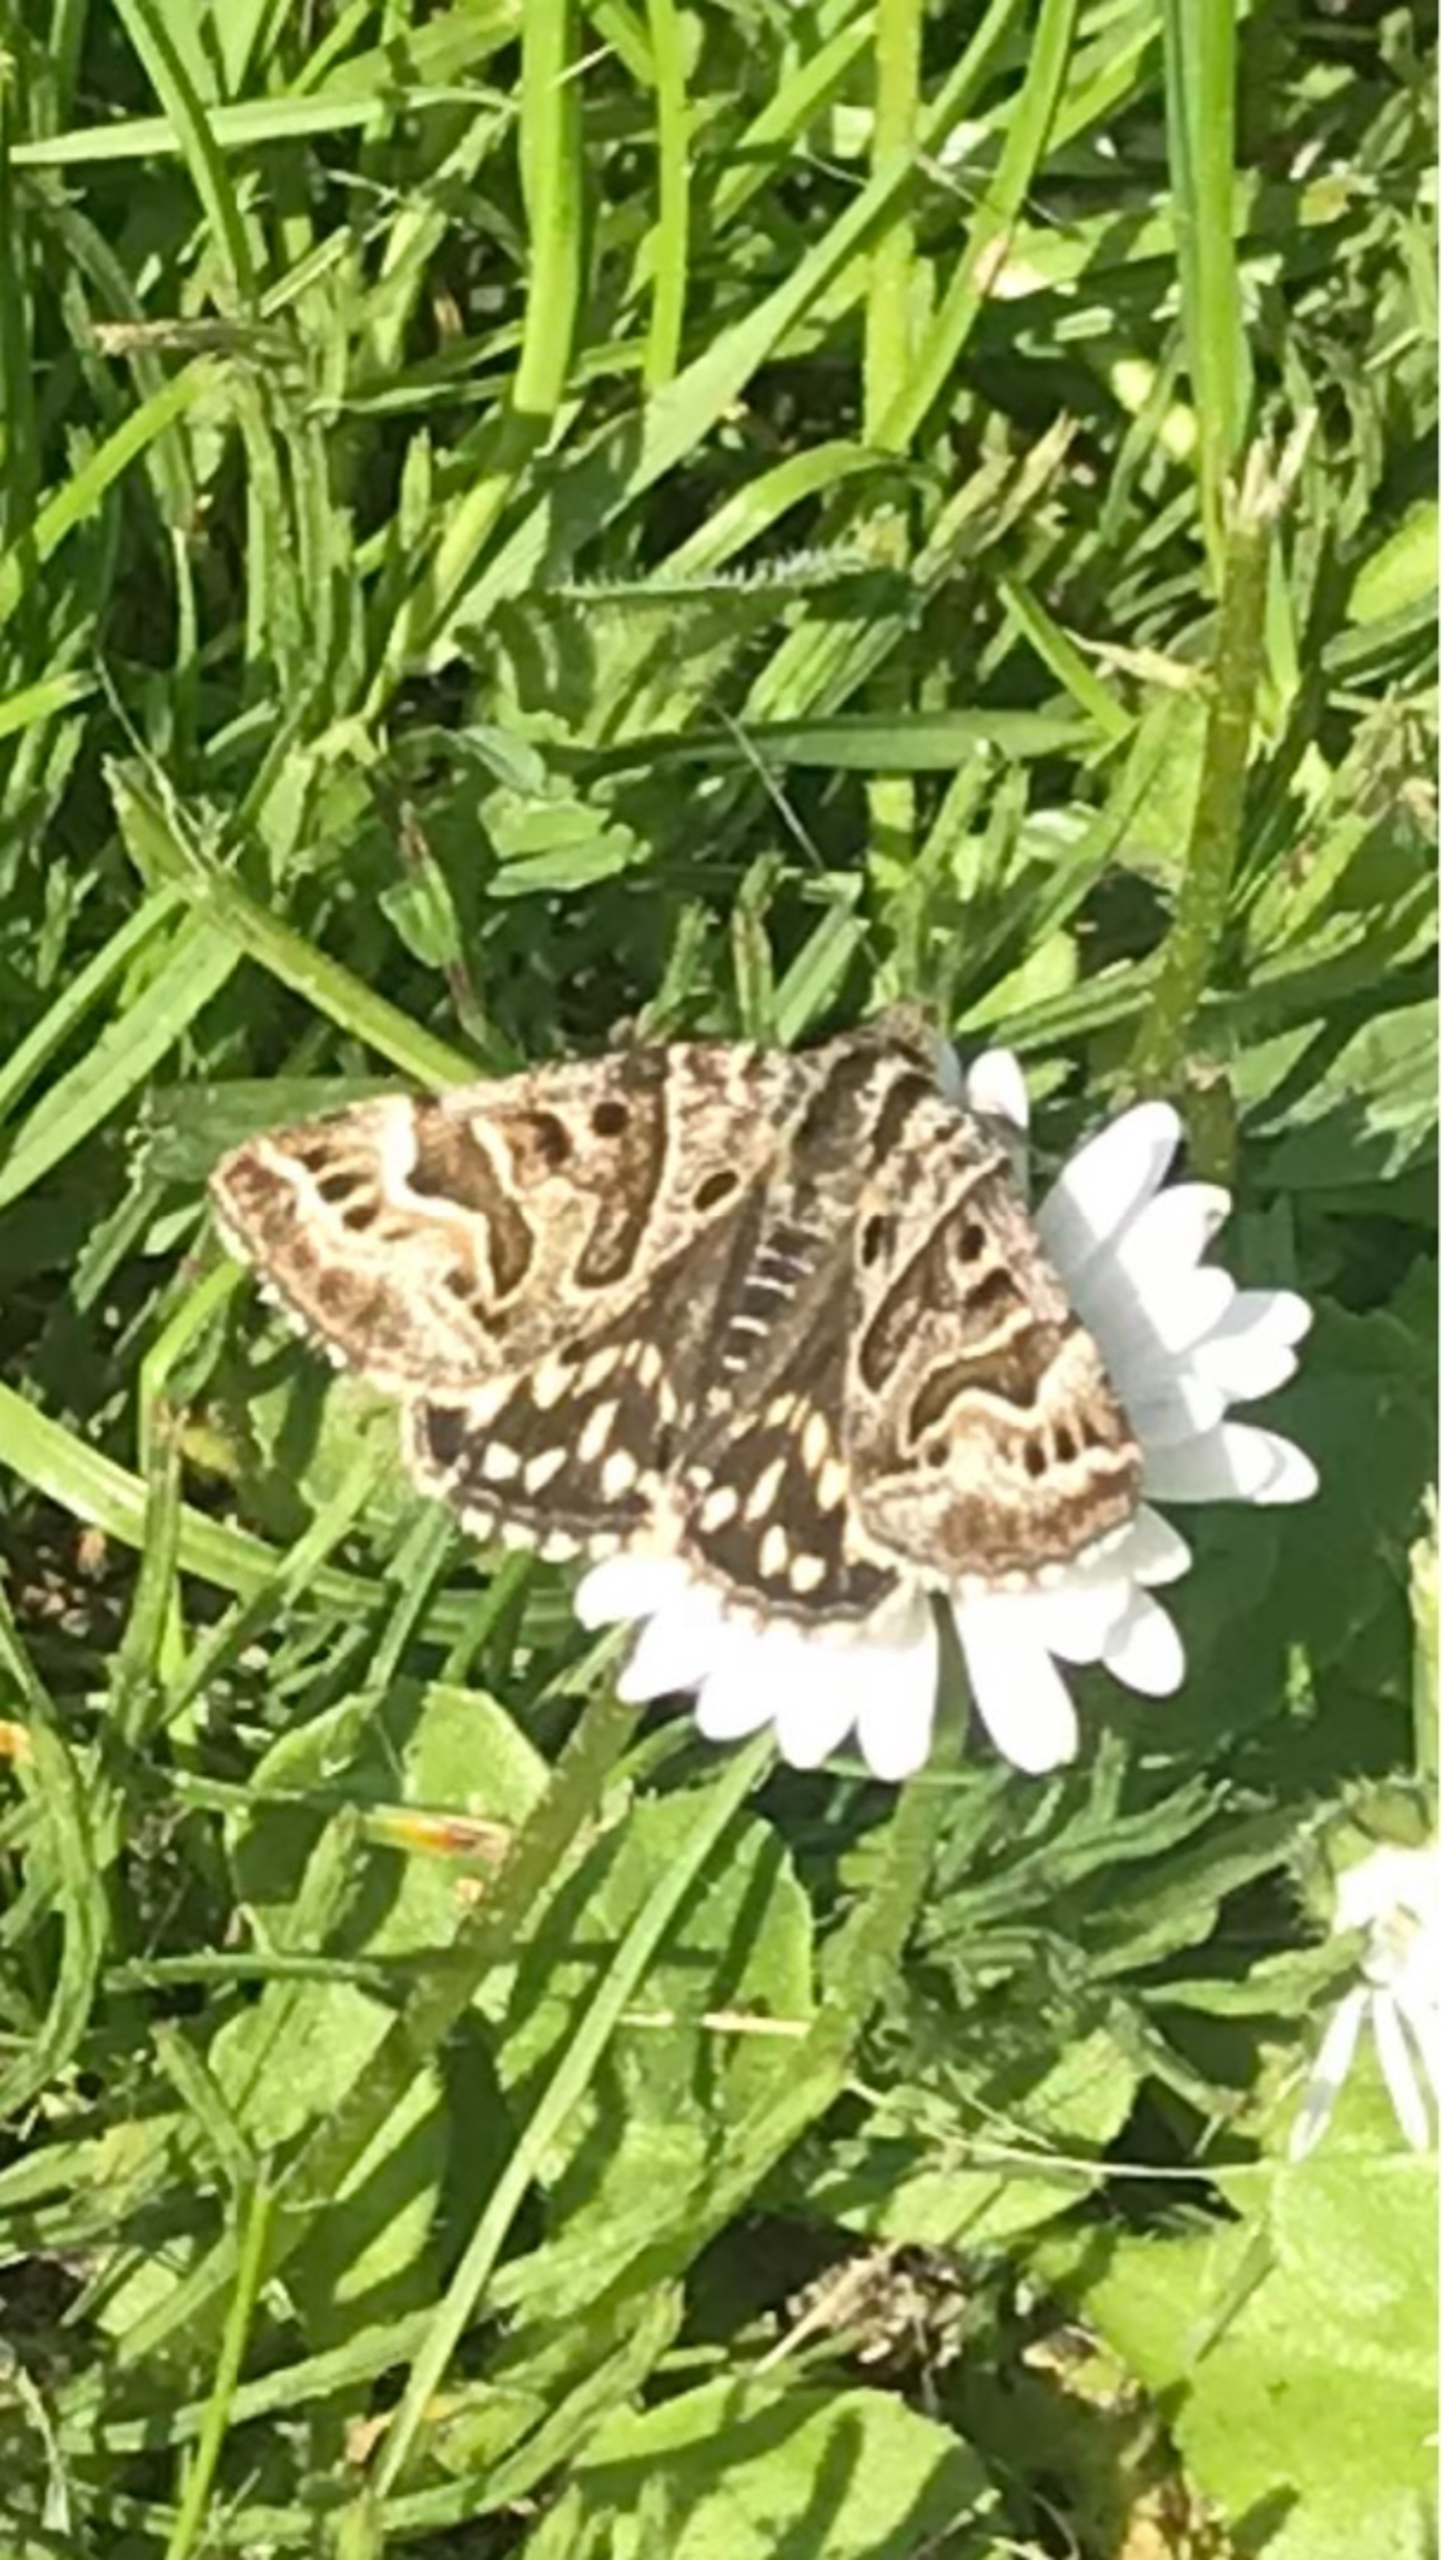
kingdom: Animalia
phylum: Arthropoda
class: Insecta
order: Lepidoptera
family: Erebidae
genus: Callistege
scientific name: Callistege mi
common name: Marmoreret kløverugle
